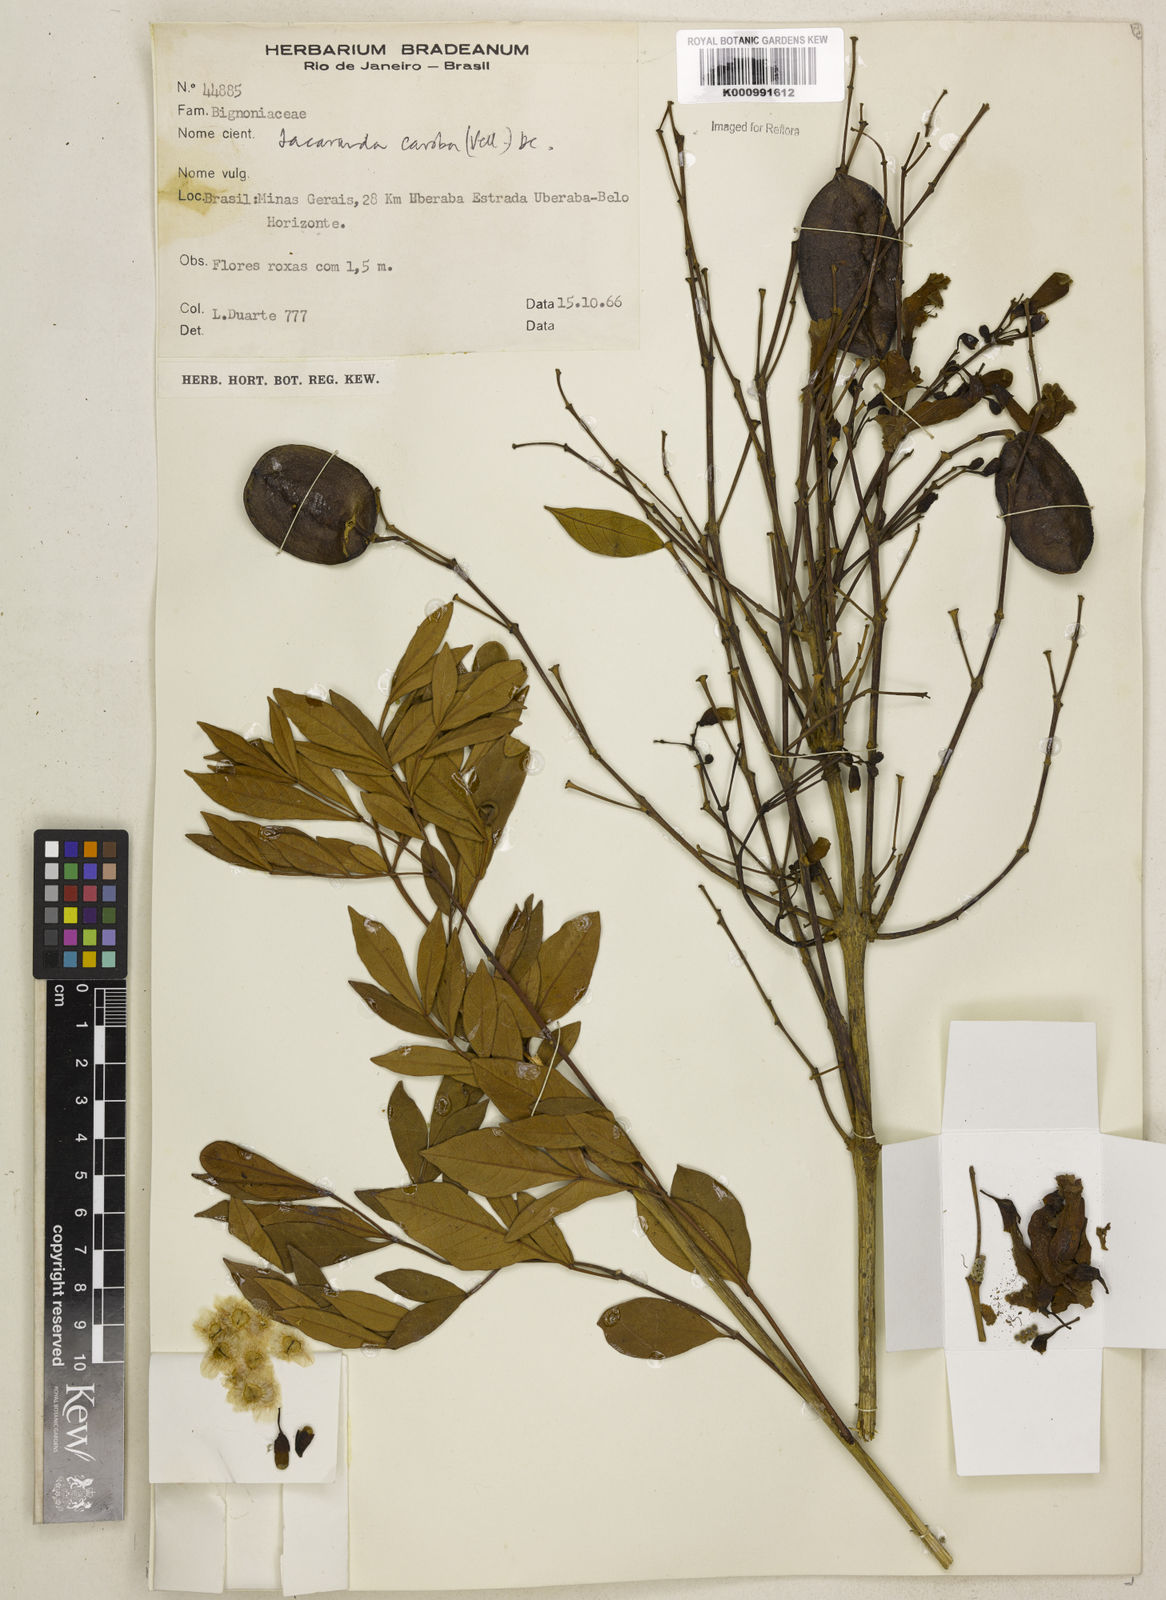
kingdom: Plantae
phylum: Tracheophyta
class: Magnoliopsida
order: Lamiales
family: Bignoniaceae
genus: Jacaranda
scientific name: Jacaranda caroba
